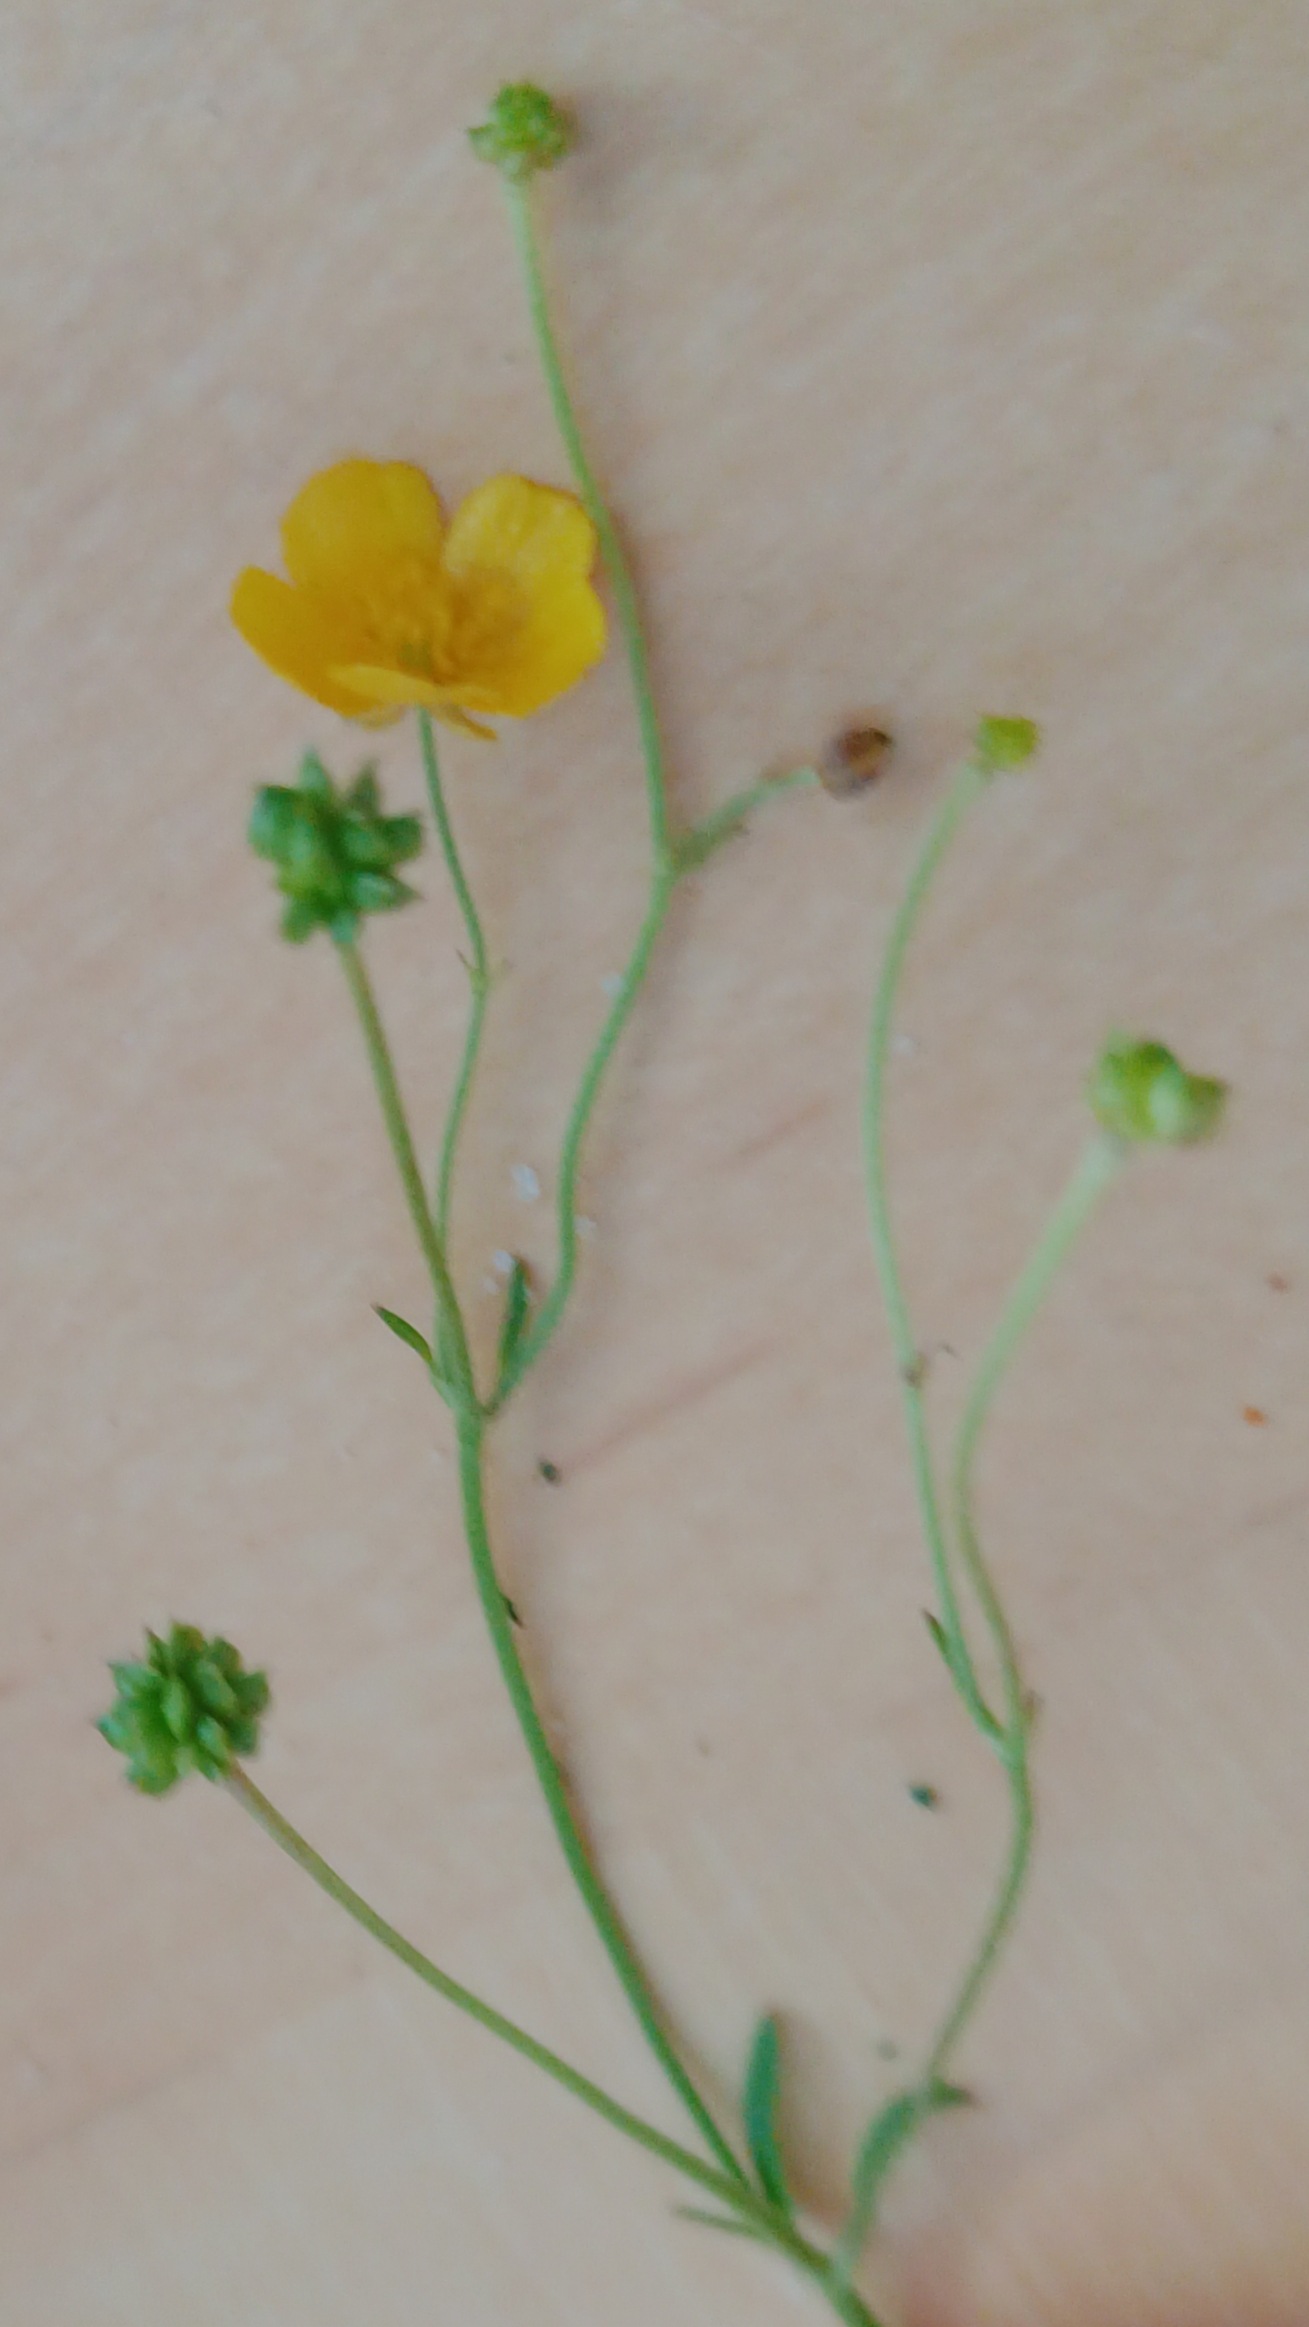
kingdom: Plantae
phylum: Tracheophyta
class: Magnoliopsida
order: Ranunculales
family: Ranunculaceae
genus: Ranunculus
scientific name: Ranunculus acris
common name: Bidende ranunkel
